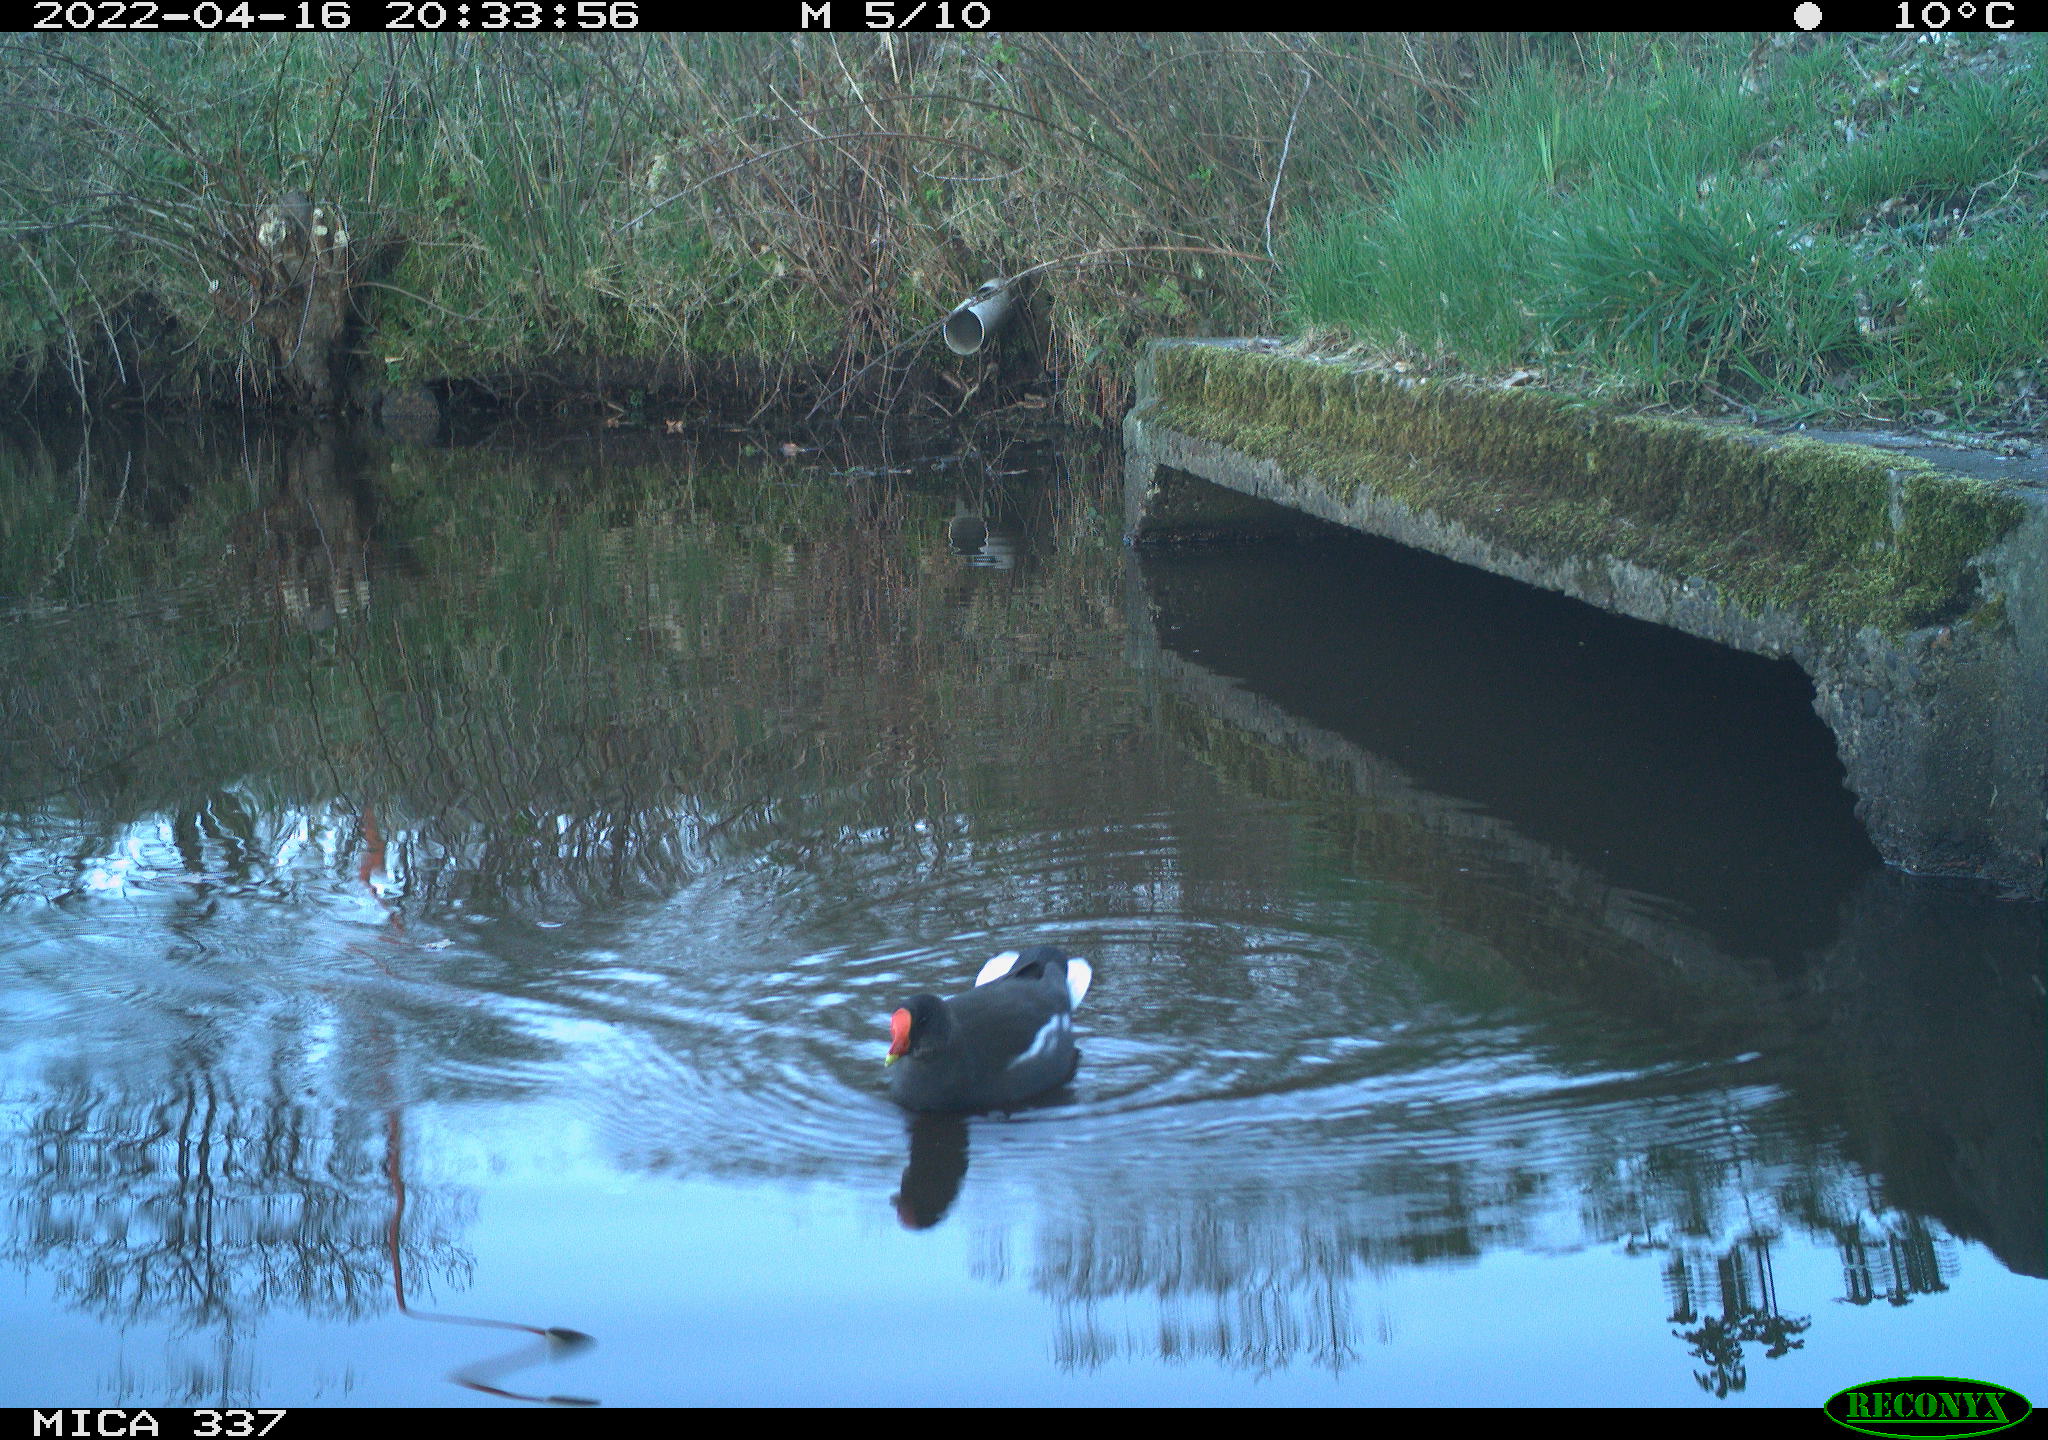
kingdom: Animalia
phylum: Chordata
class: Aves
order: Gruiformes
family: Rallidae
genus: Gallinula
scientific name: Gallinula chloropus
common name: Common moorhen
